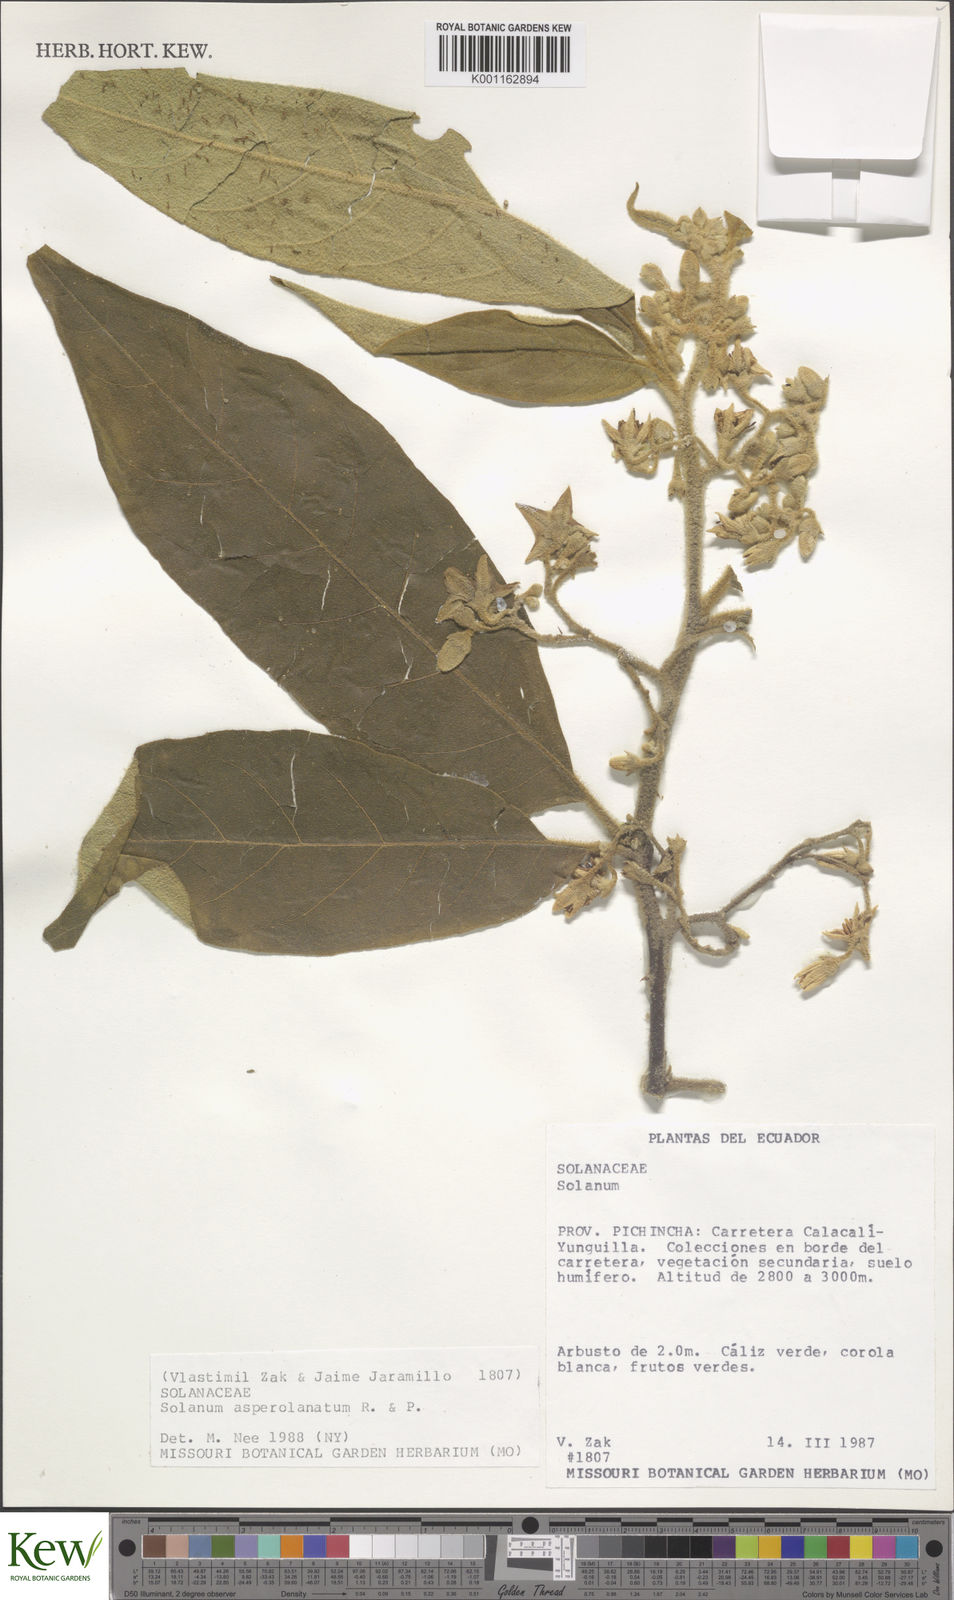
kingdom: Plantae
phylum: Tracheophyta
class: Magnoliopsida
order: Solanales
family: Solanaceae
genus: Solanum
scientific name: Solanum asperolanatum
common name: Devil's-fig
